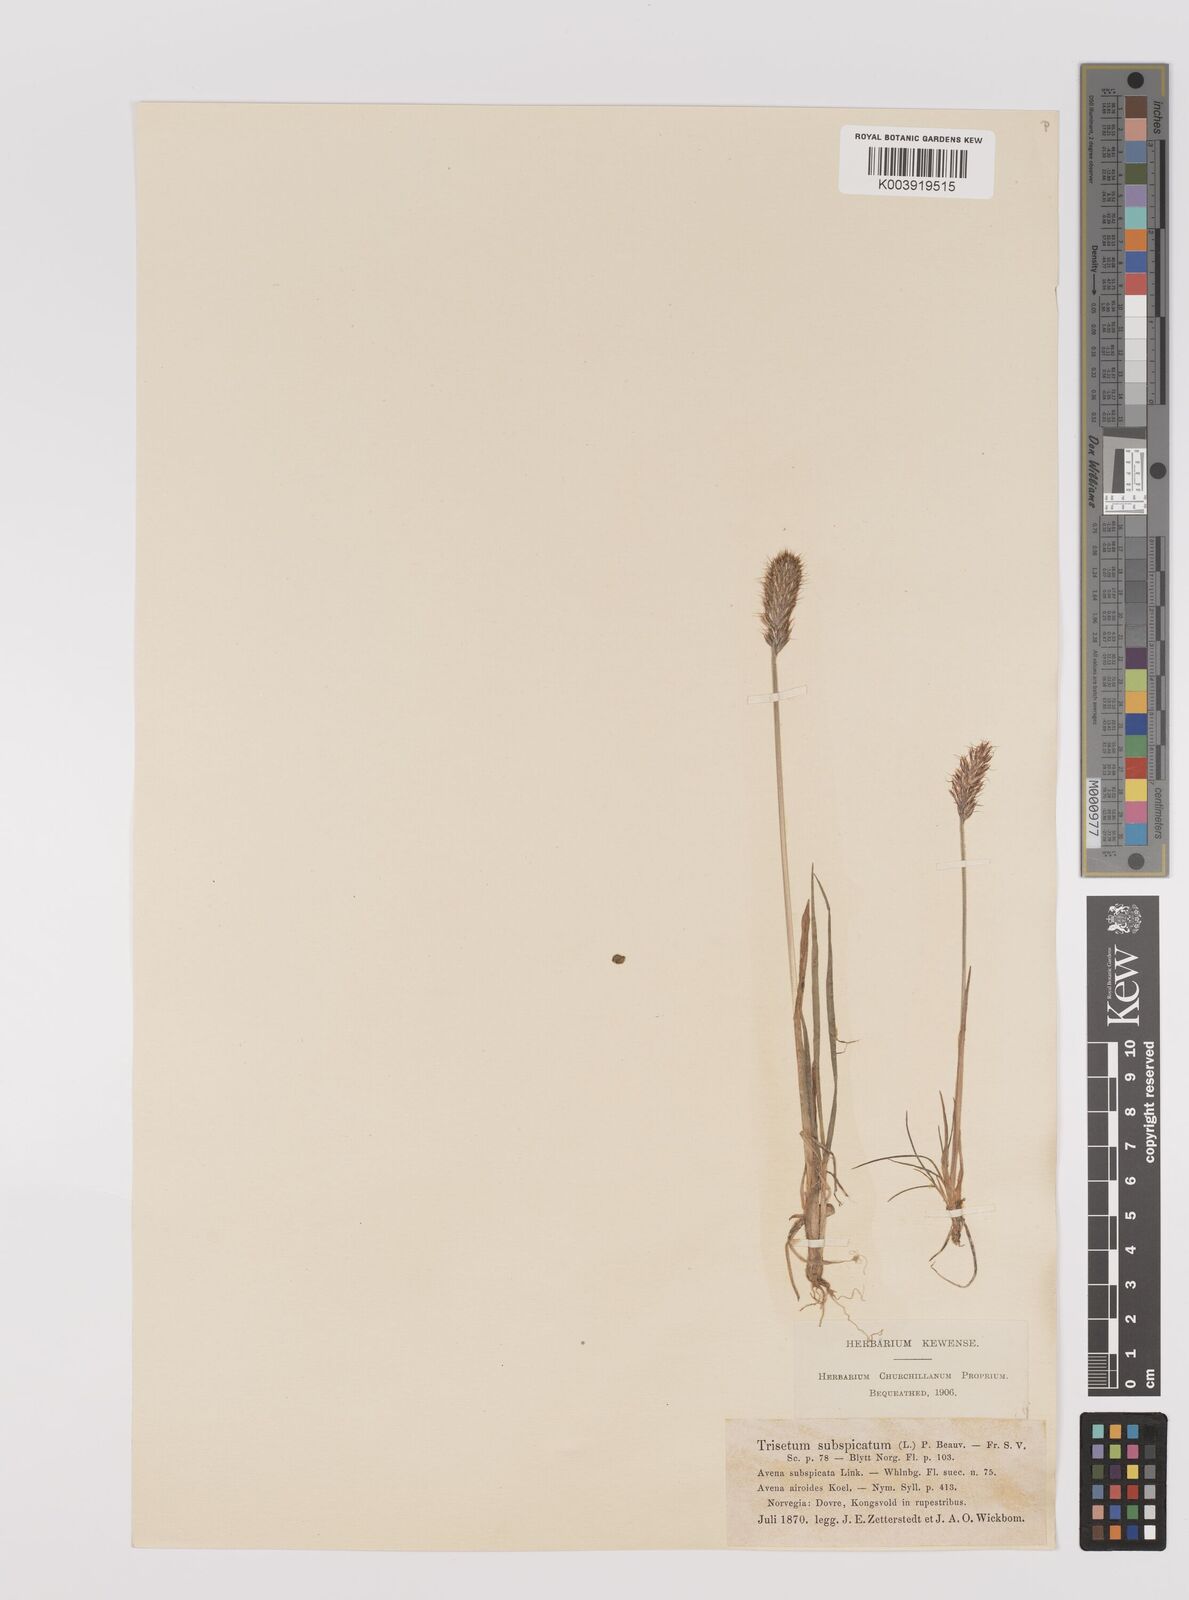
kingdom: Plantae
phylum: Tracheophyta
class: Liliopsida
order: Poales
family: Poaceae
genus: Koeleria
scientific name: Koeleria spicata
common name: Mountain trisetum
